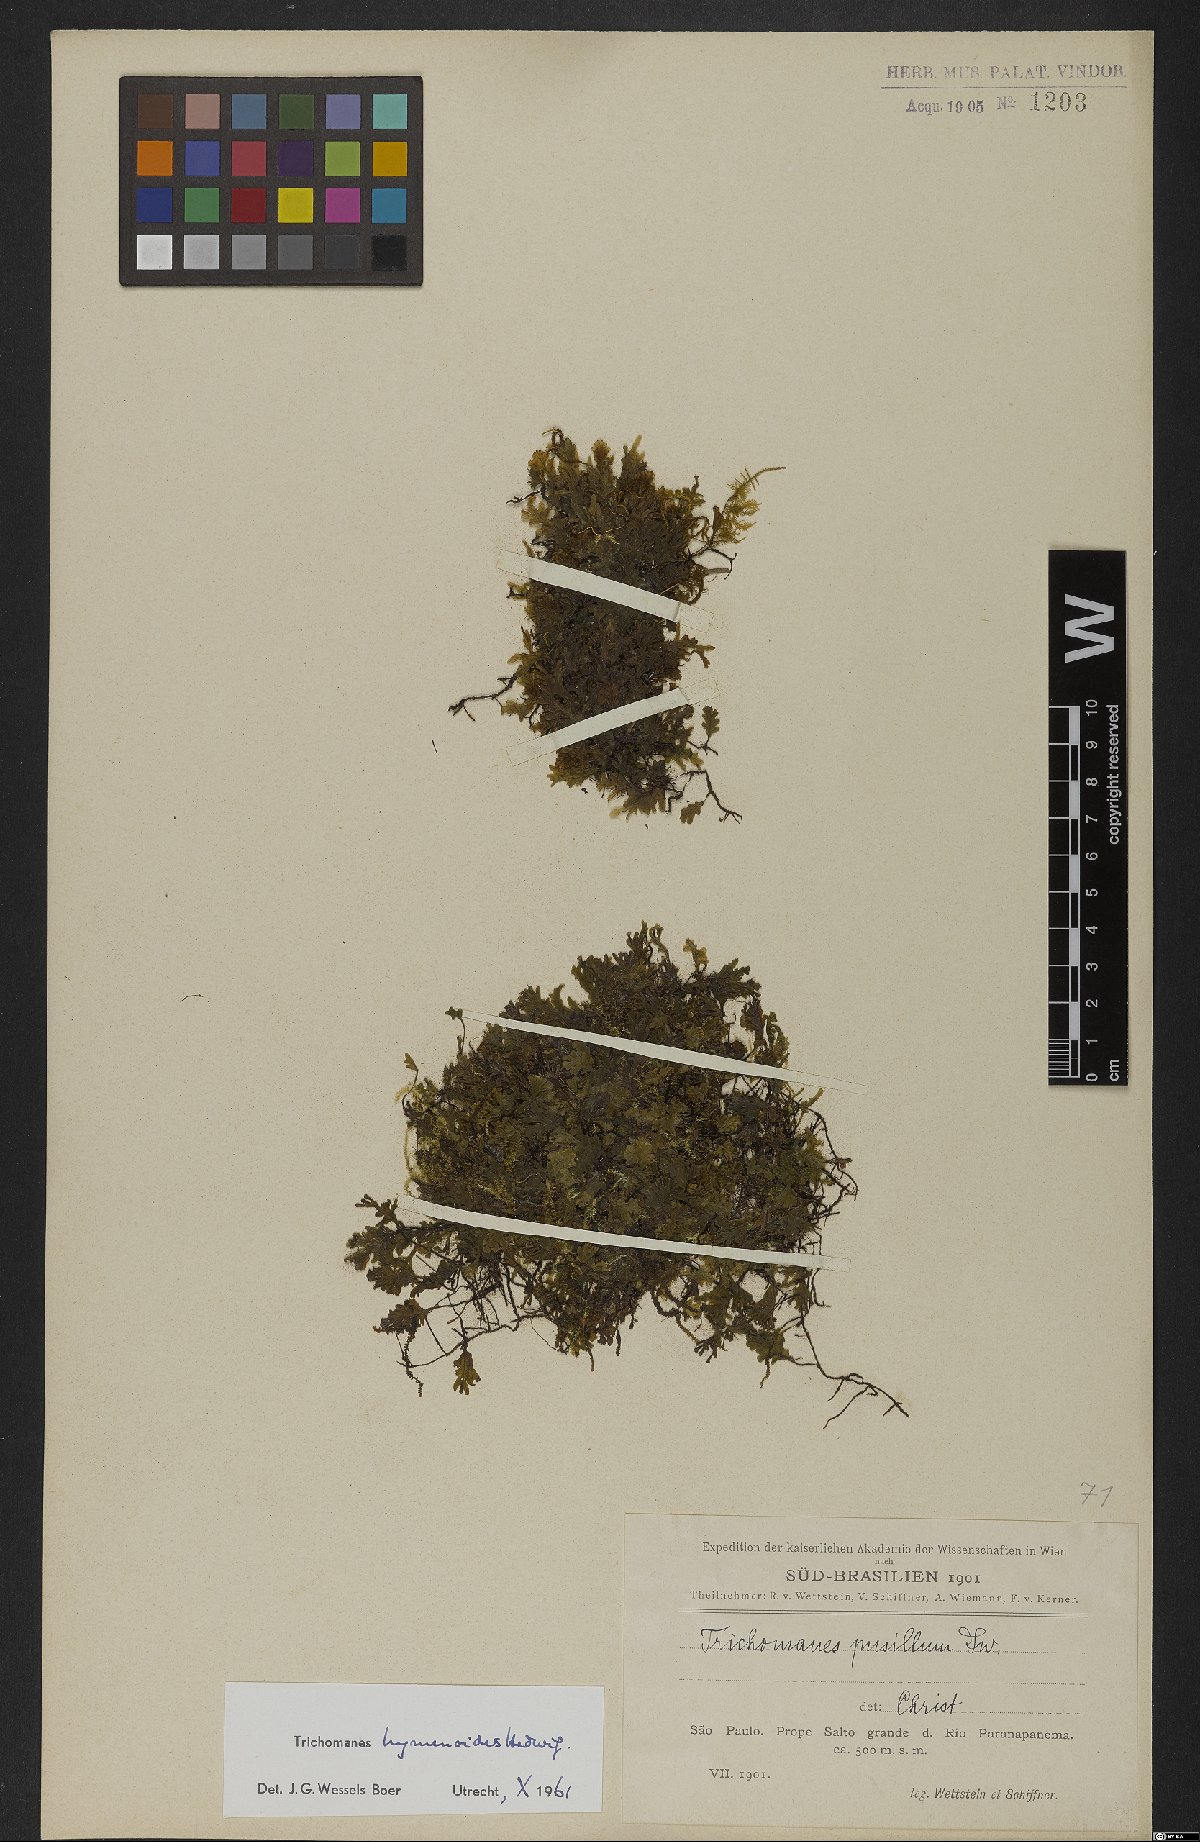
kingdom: Plantae
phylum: Tracheophyta
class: Polypodiopsida
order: Hymenophyllales
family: Hymenophyllaceae
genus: Didymoglossum
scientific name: Didymoglossum hymenoides
